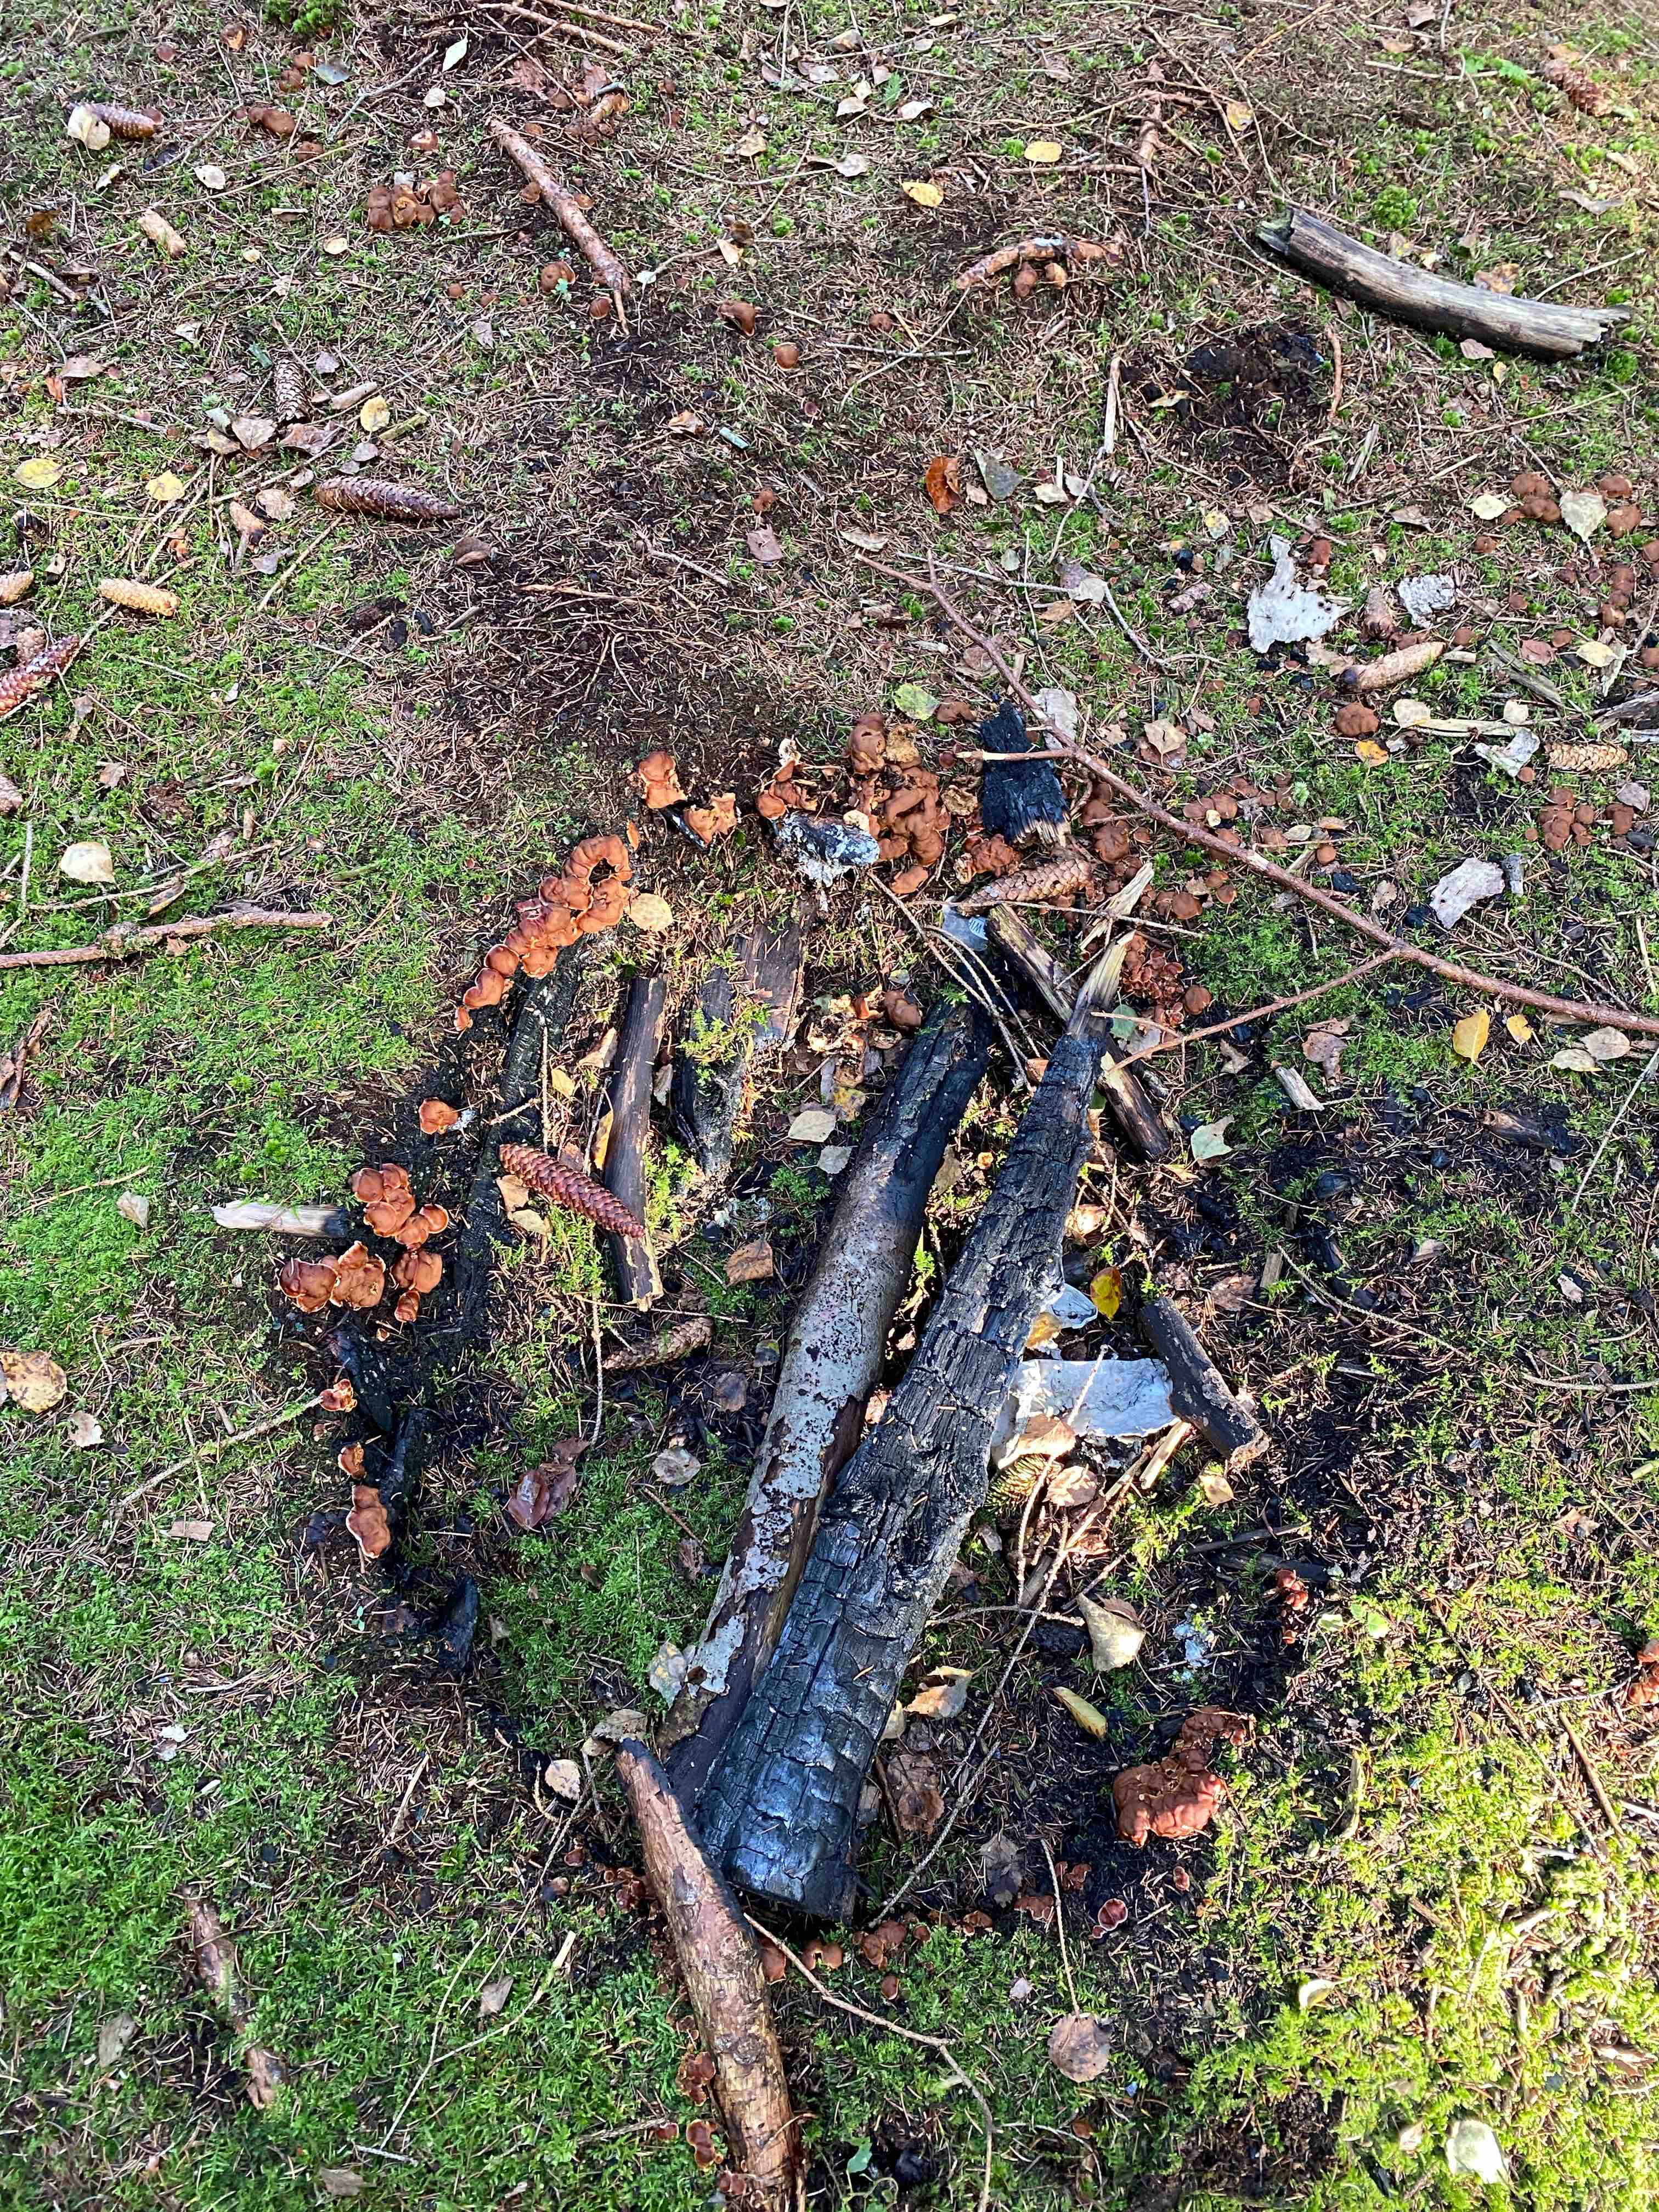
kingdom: Fungi
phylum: Ascomycota
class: Pezizomycetes
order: Pezizales
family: Rhizinaceae
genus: Rhizina
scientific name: Rhizina undulata
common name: rodmorkel
